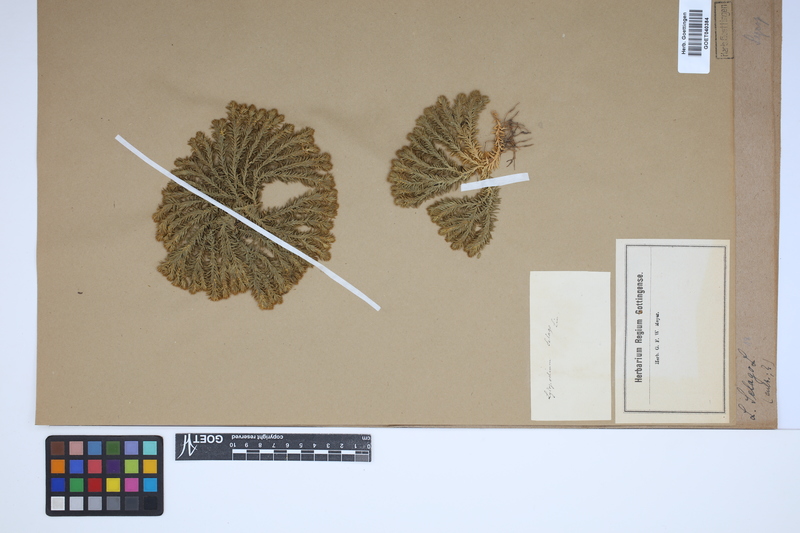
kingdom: Plantae
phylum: Tracheophyta
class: Lycopodiopsida
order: Lycopodiales
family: Lycopodiaceae
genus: Huperzia
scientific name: Huperzia selago
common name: Northern firmoss
